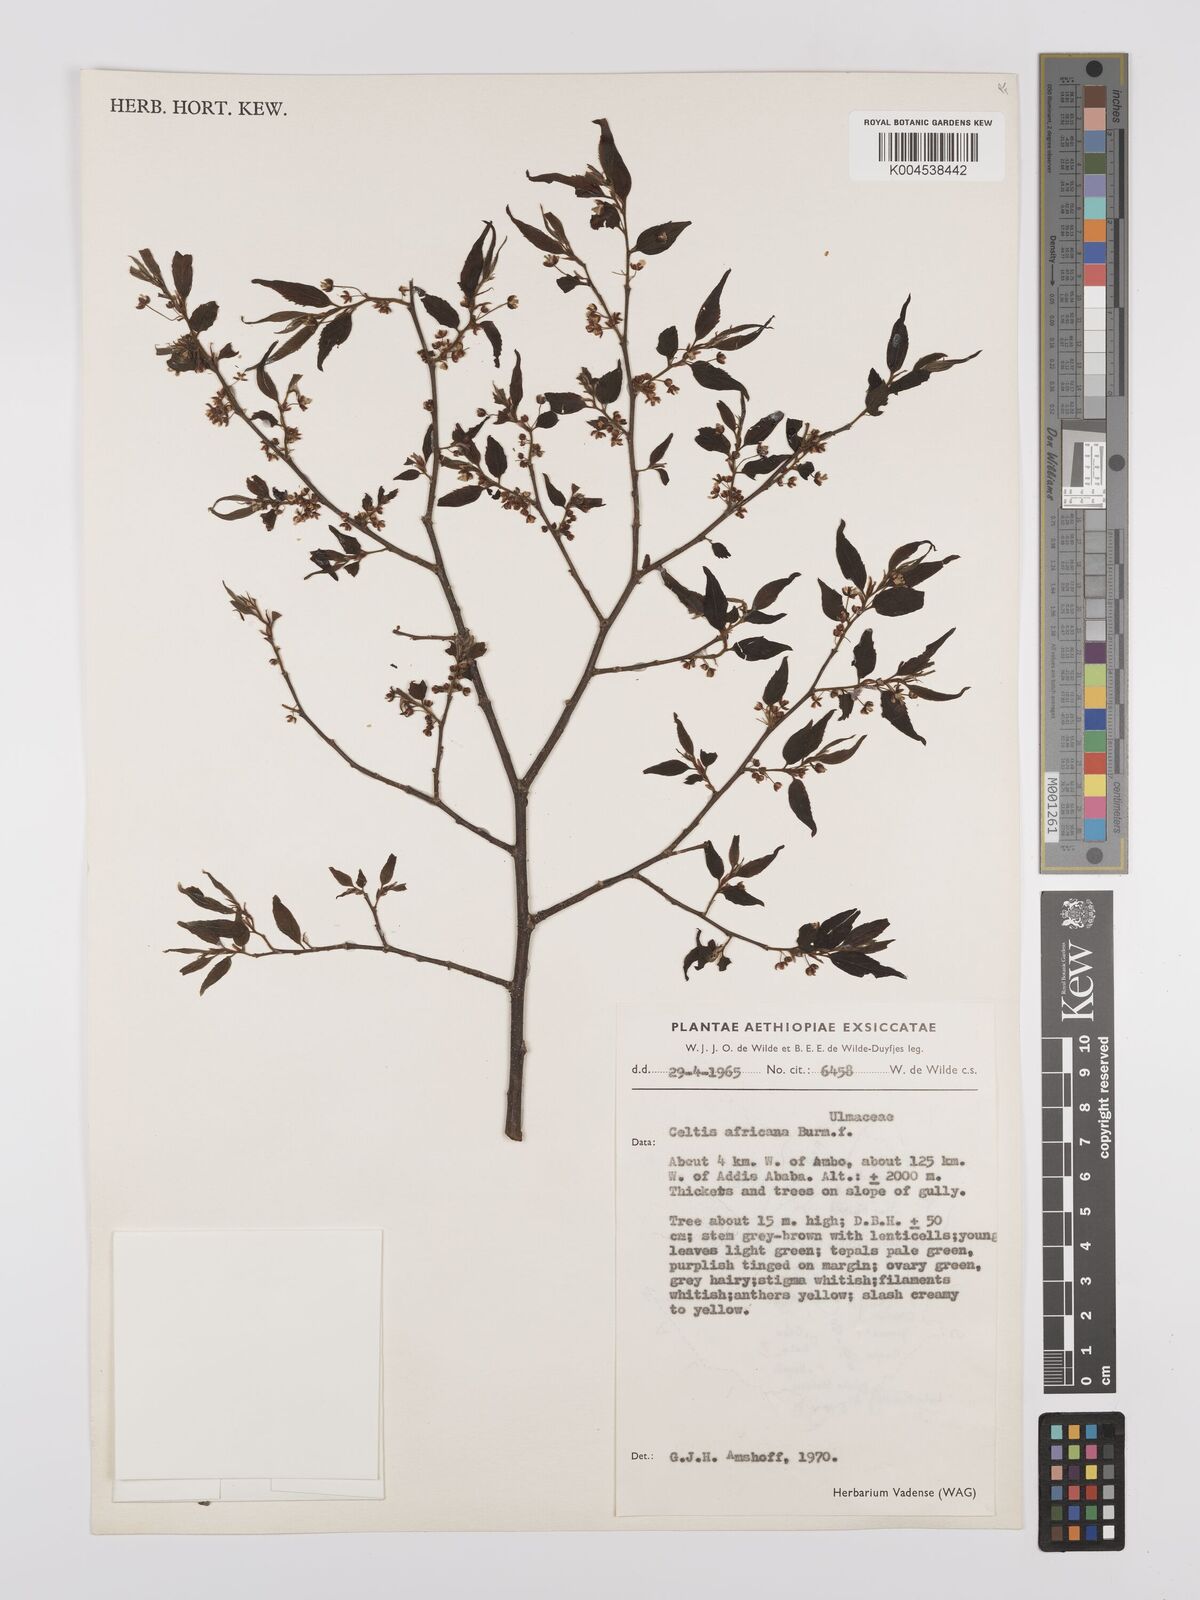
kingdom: Plantae
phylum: Tracheophyta
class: Magnoliopsida
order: Rosales
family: Cannabaceae
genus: Celtis
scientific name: Celtis africana
